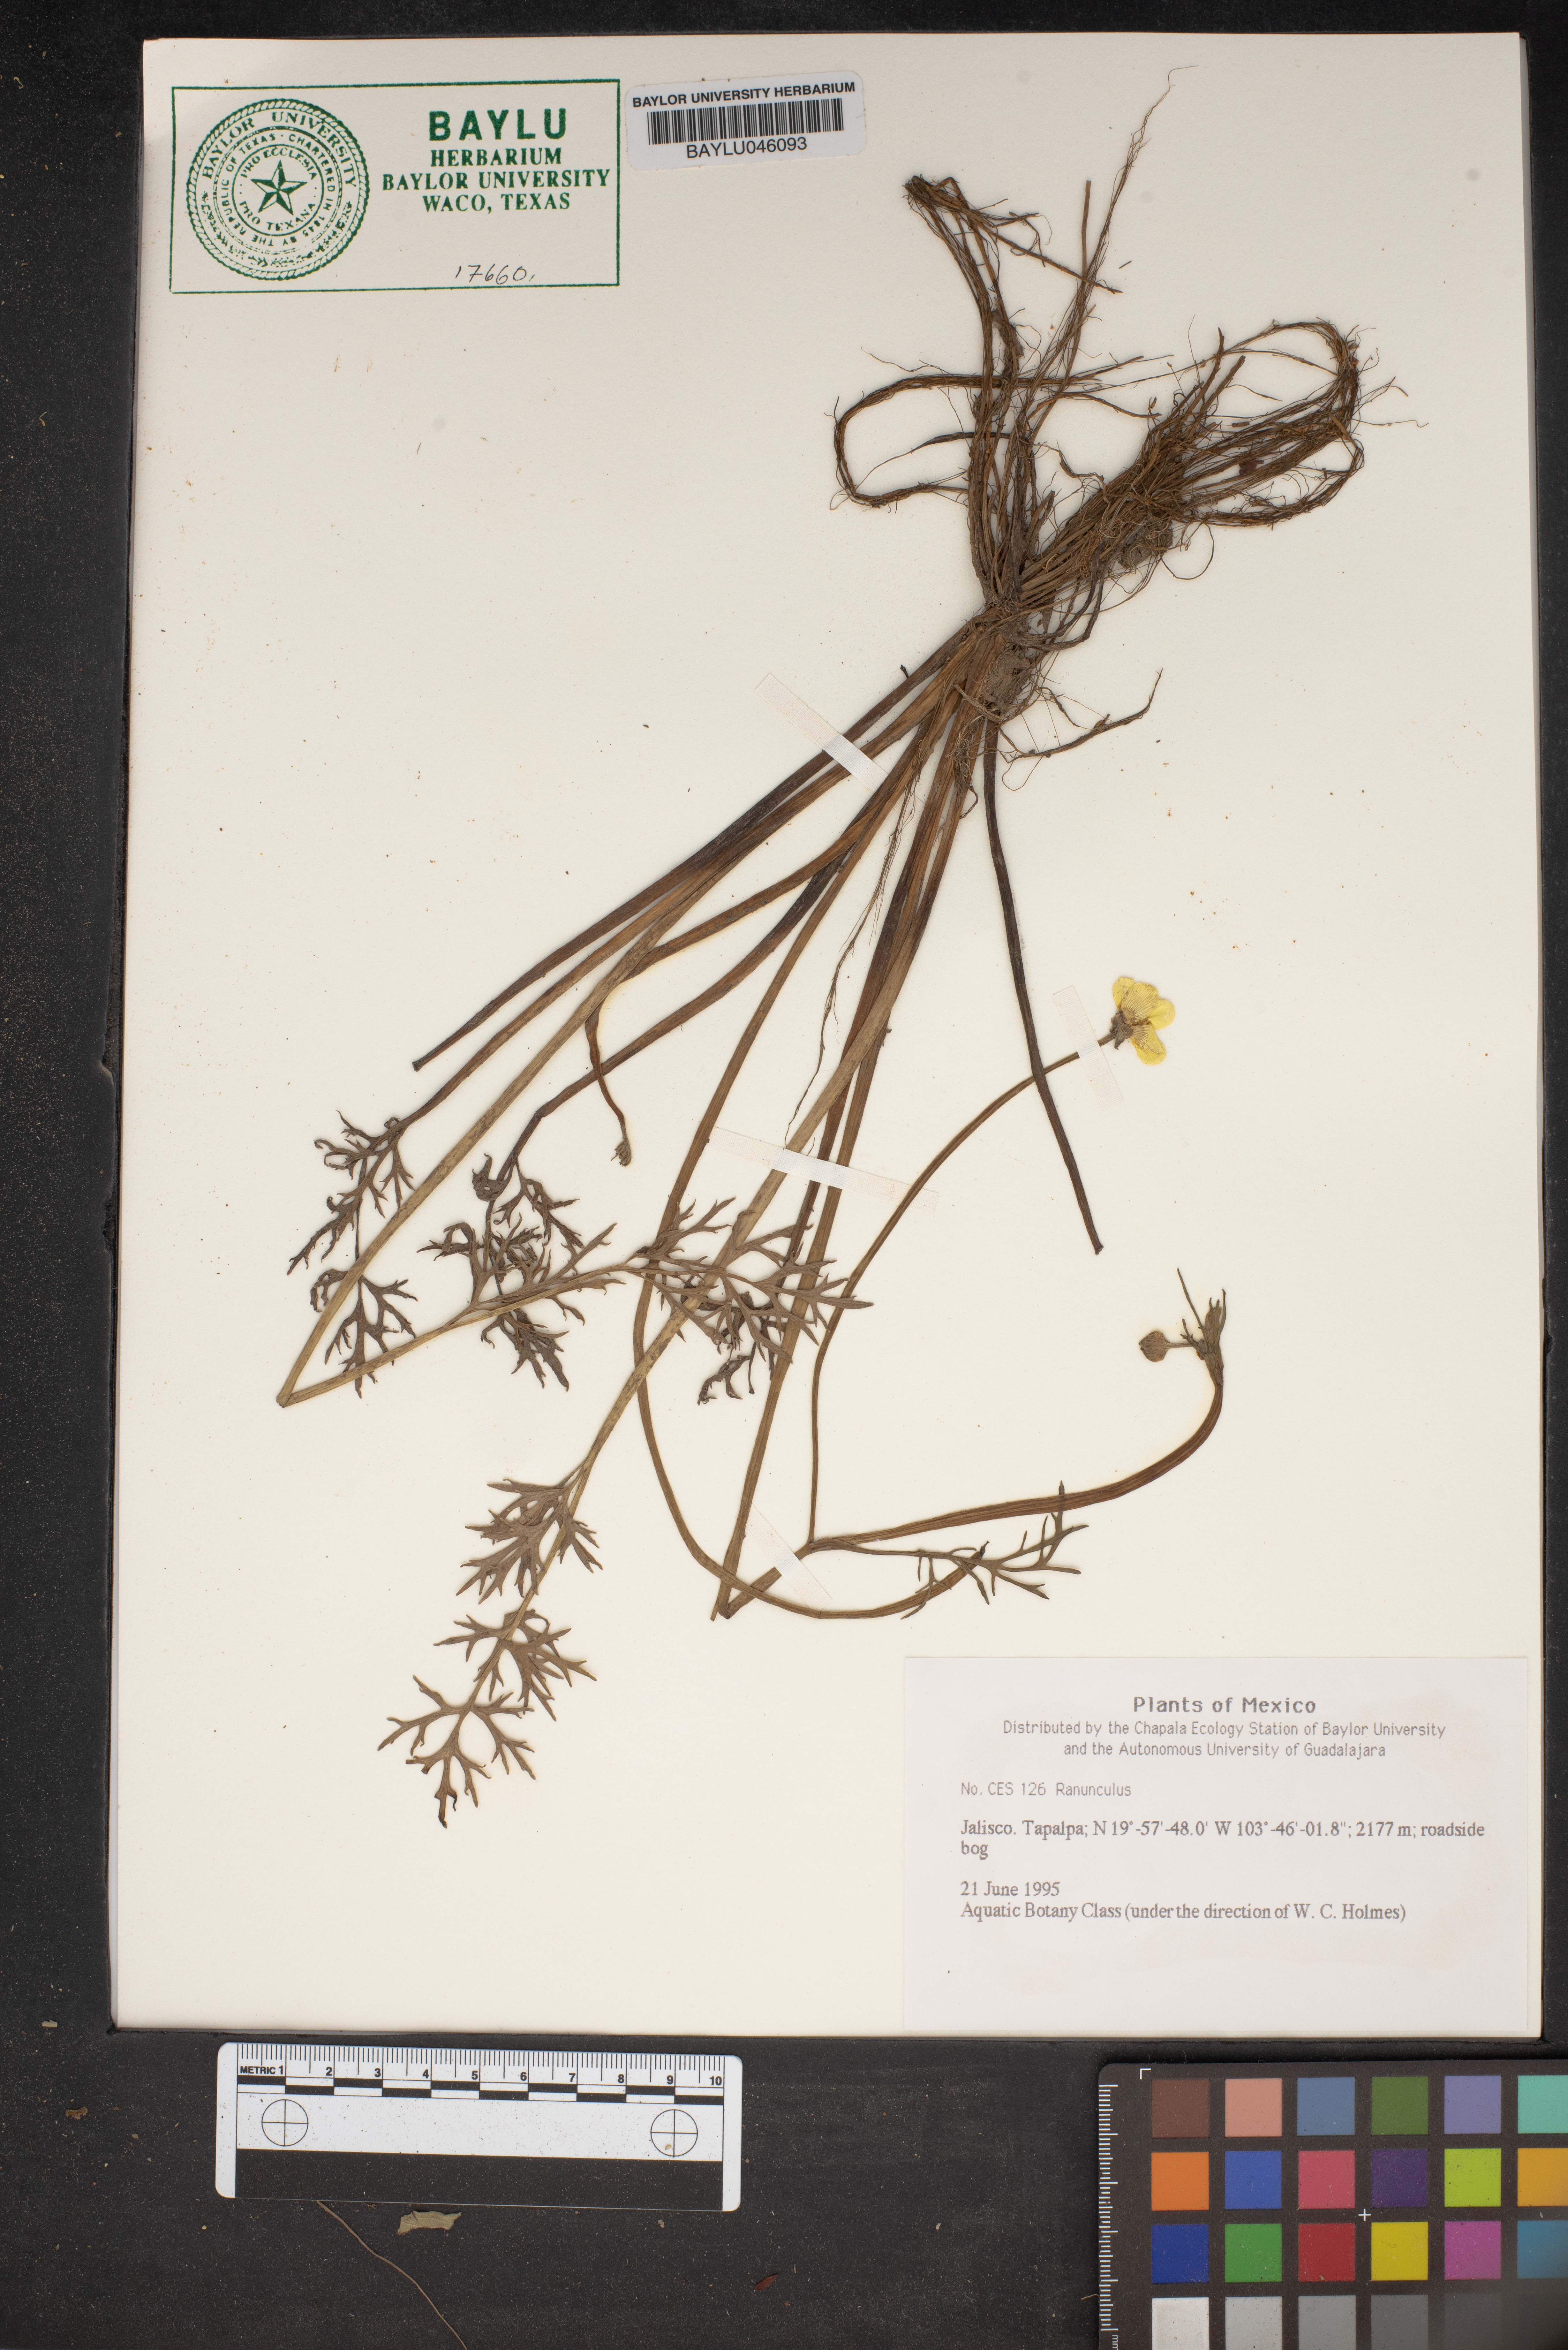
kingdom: Plantae
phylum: Tracheophyta
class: Magnoliopsida
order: Ranunculales
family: Ranunculaceae
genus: Ranunculus
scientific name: Ranunculus
